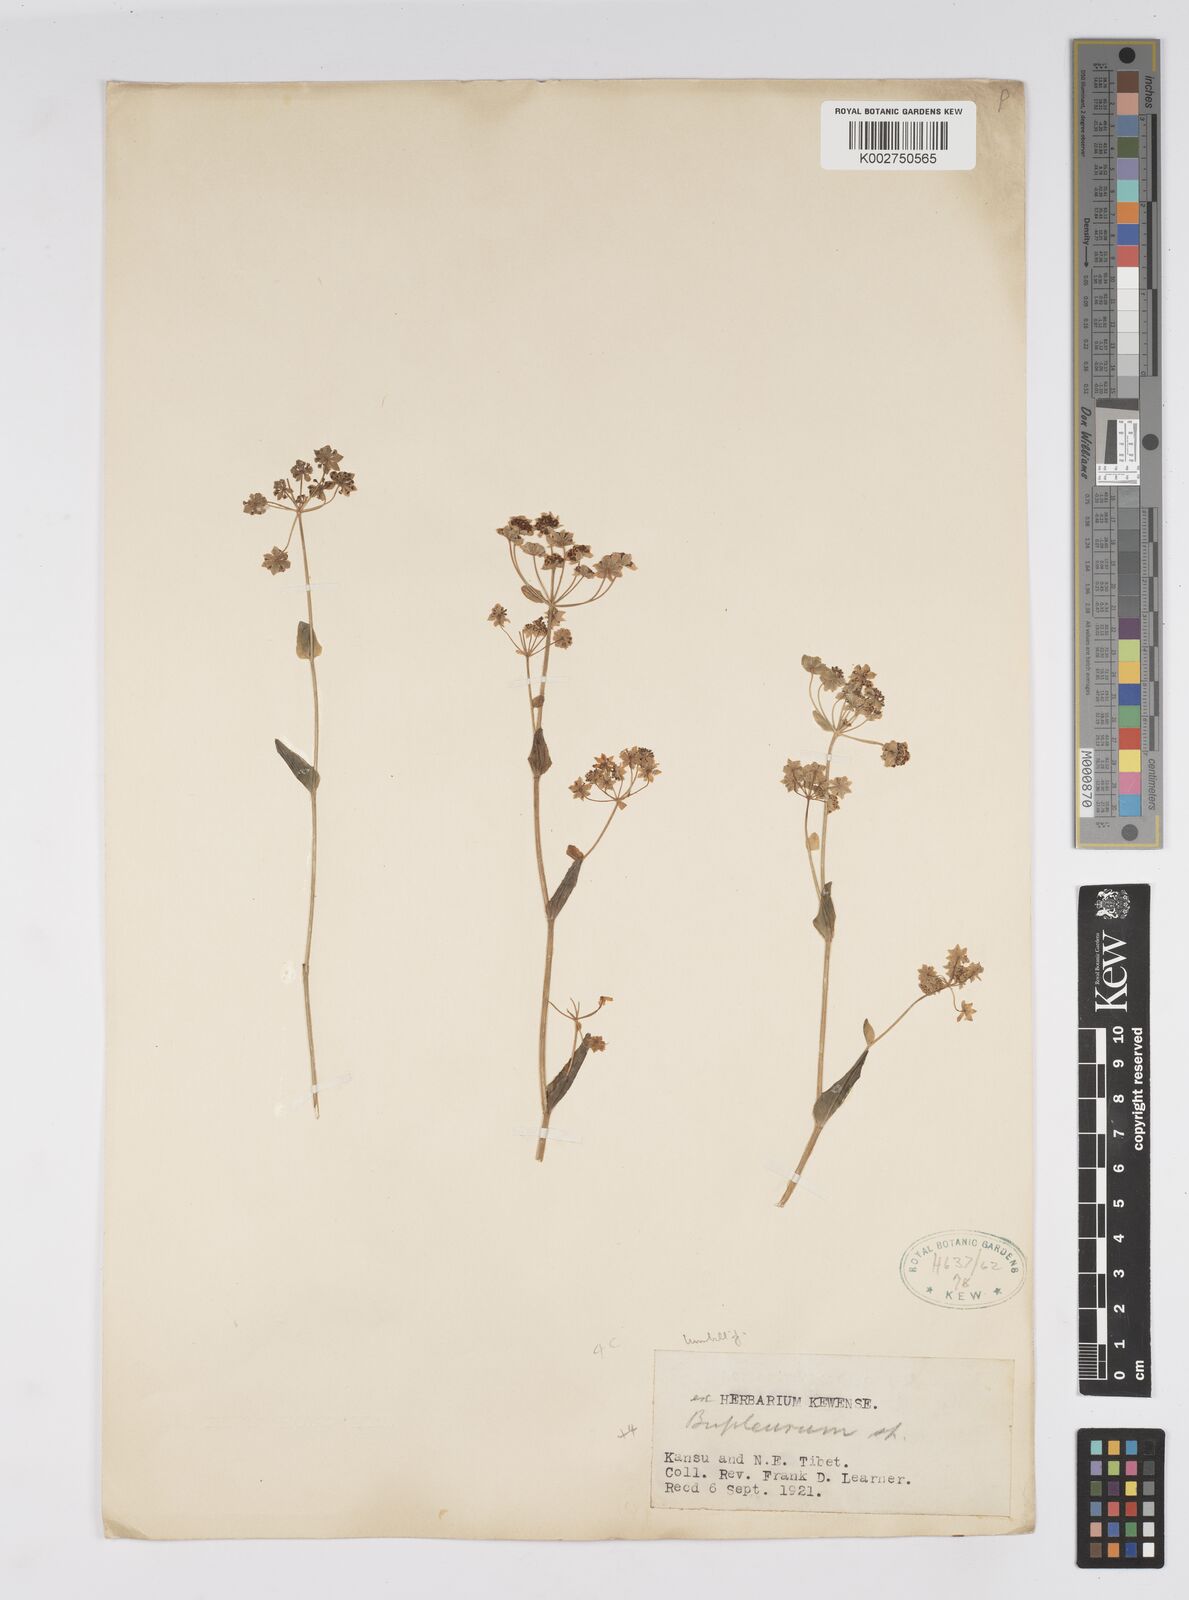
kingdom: Plantae
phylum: Tracheophyta
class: Magnoliopsida
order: Apiales
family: Apiaceae
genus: Bupleurum
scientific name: Bupleurum
